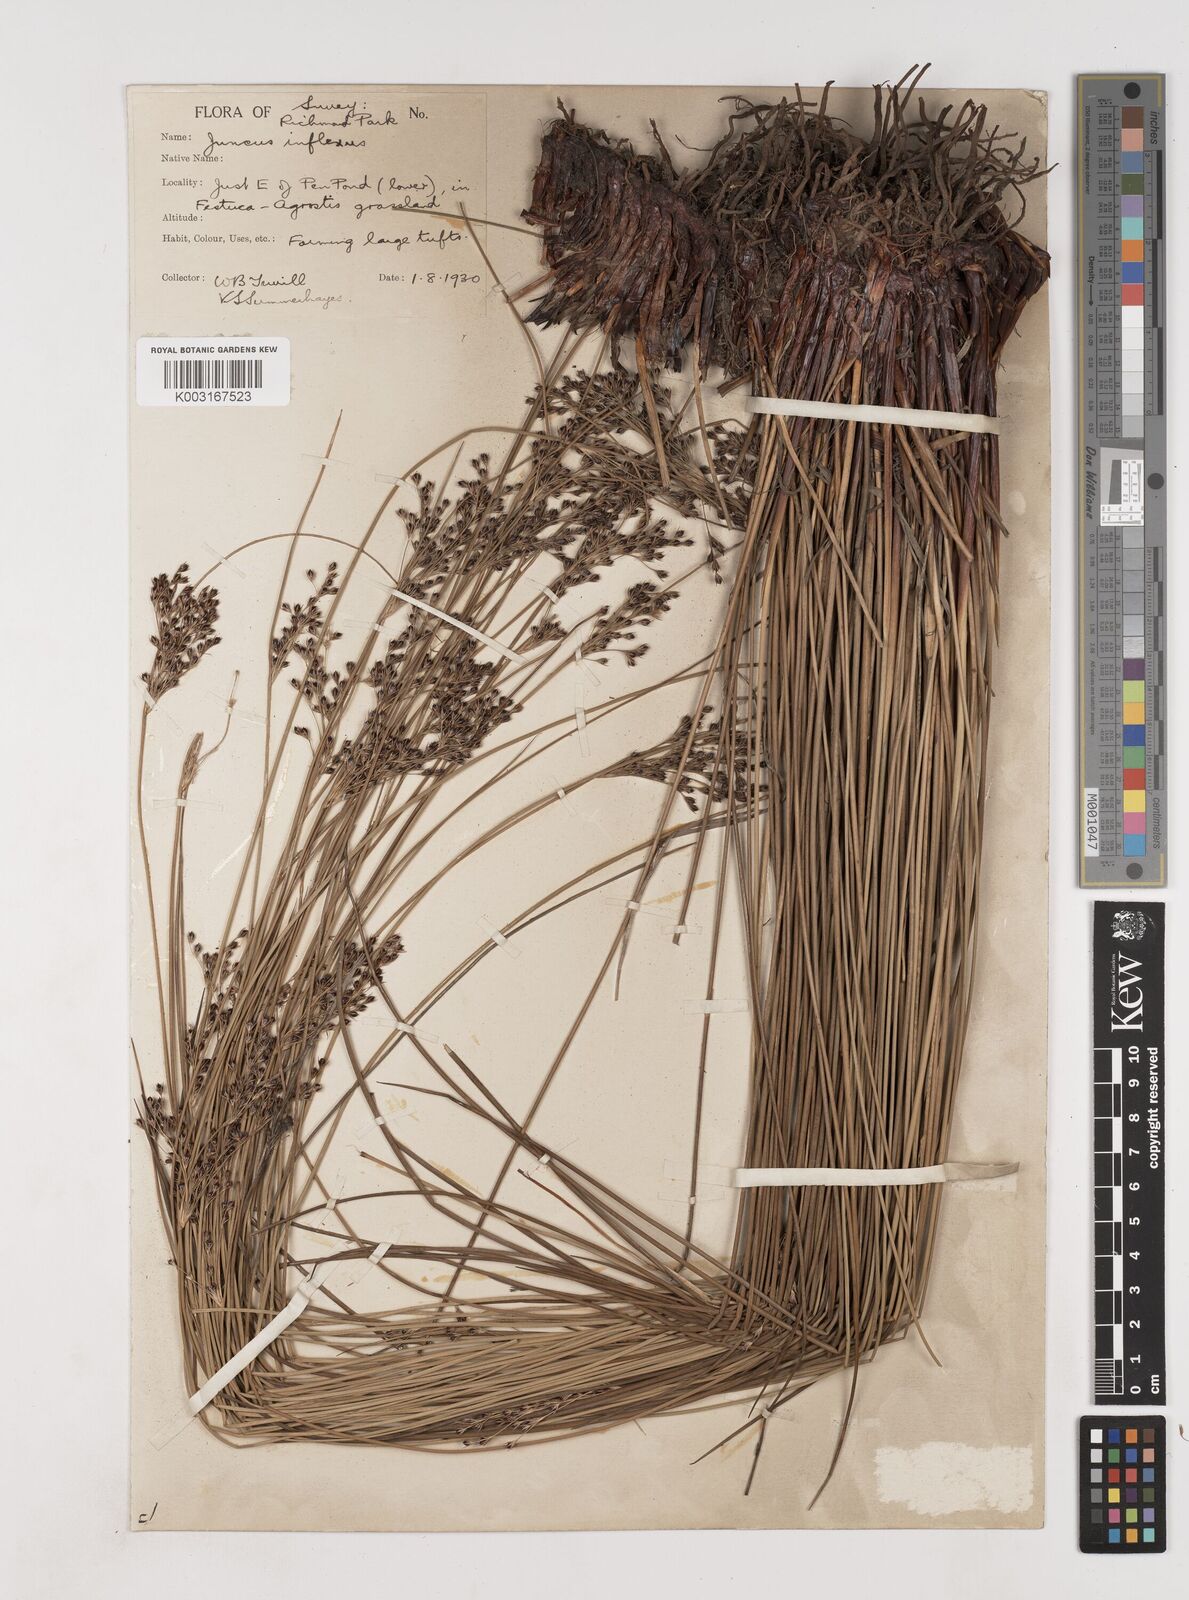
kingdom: Plantae
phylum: Tracheophyta
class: Liliopsida
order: Poales
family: Juncaceae
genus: Juncus
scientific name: Juncus inflexus
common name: Hard rush
